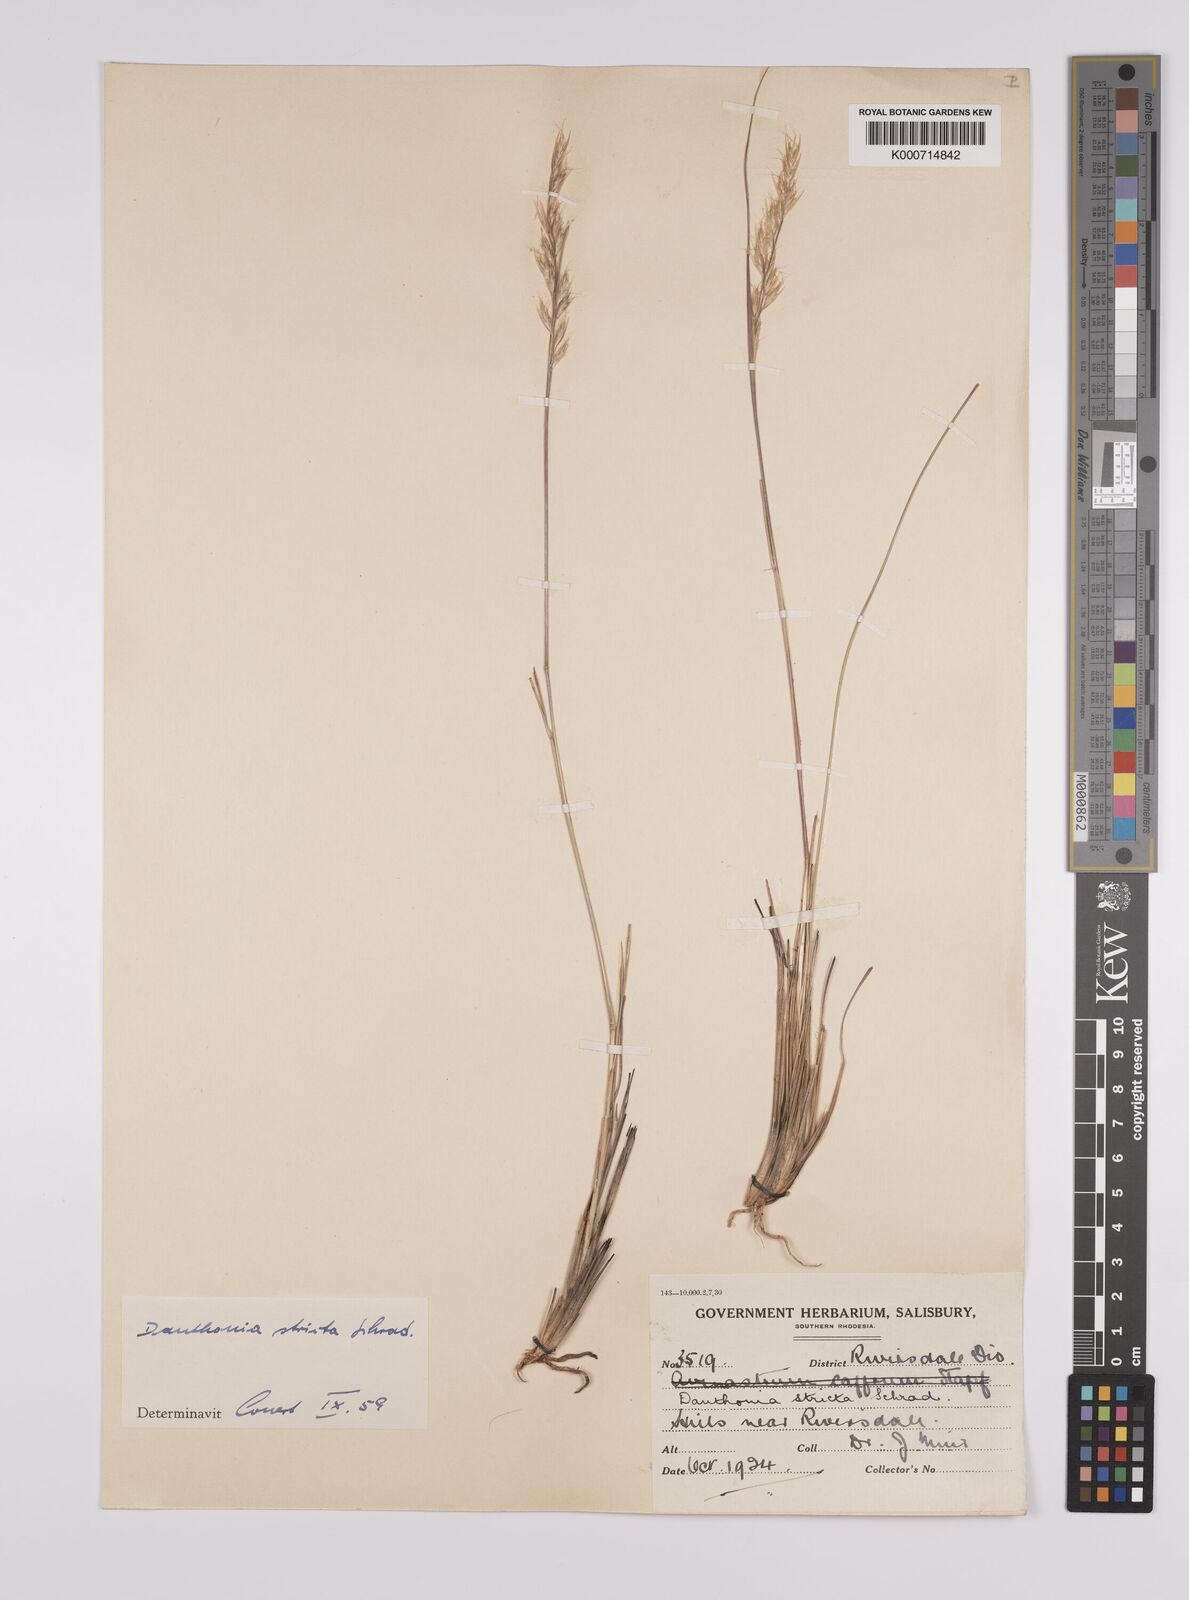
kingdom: Plantae
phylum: Tracheophyta
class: Liliopsida
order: Poales
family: Poaceae
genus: Rytidosperma
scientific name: Rytidosperma
